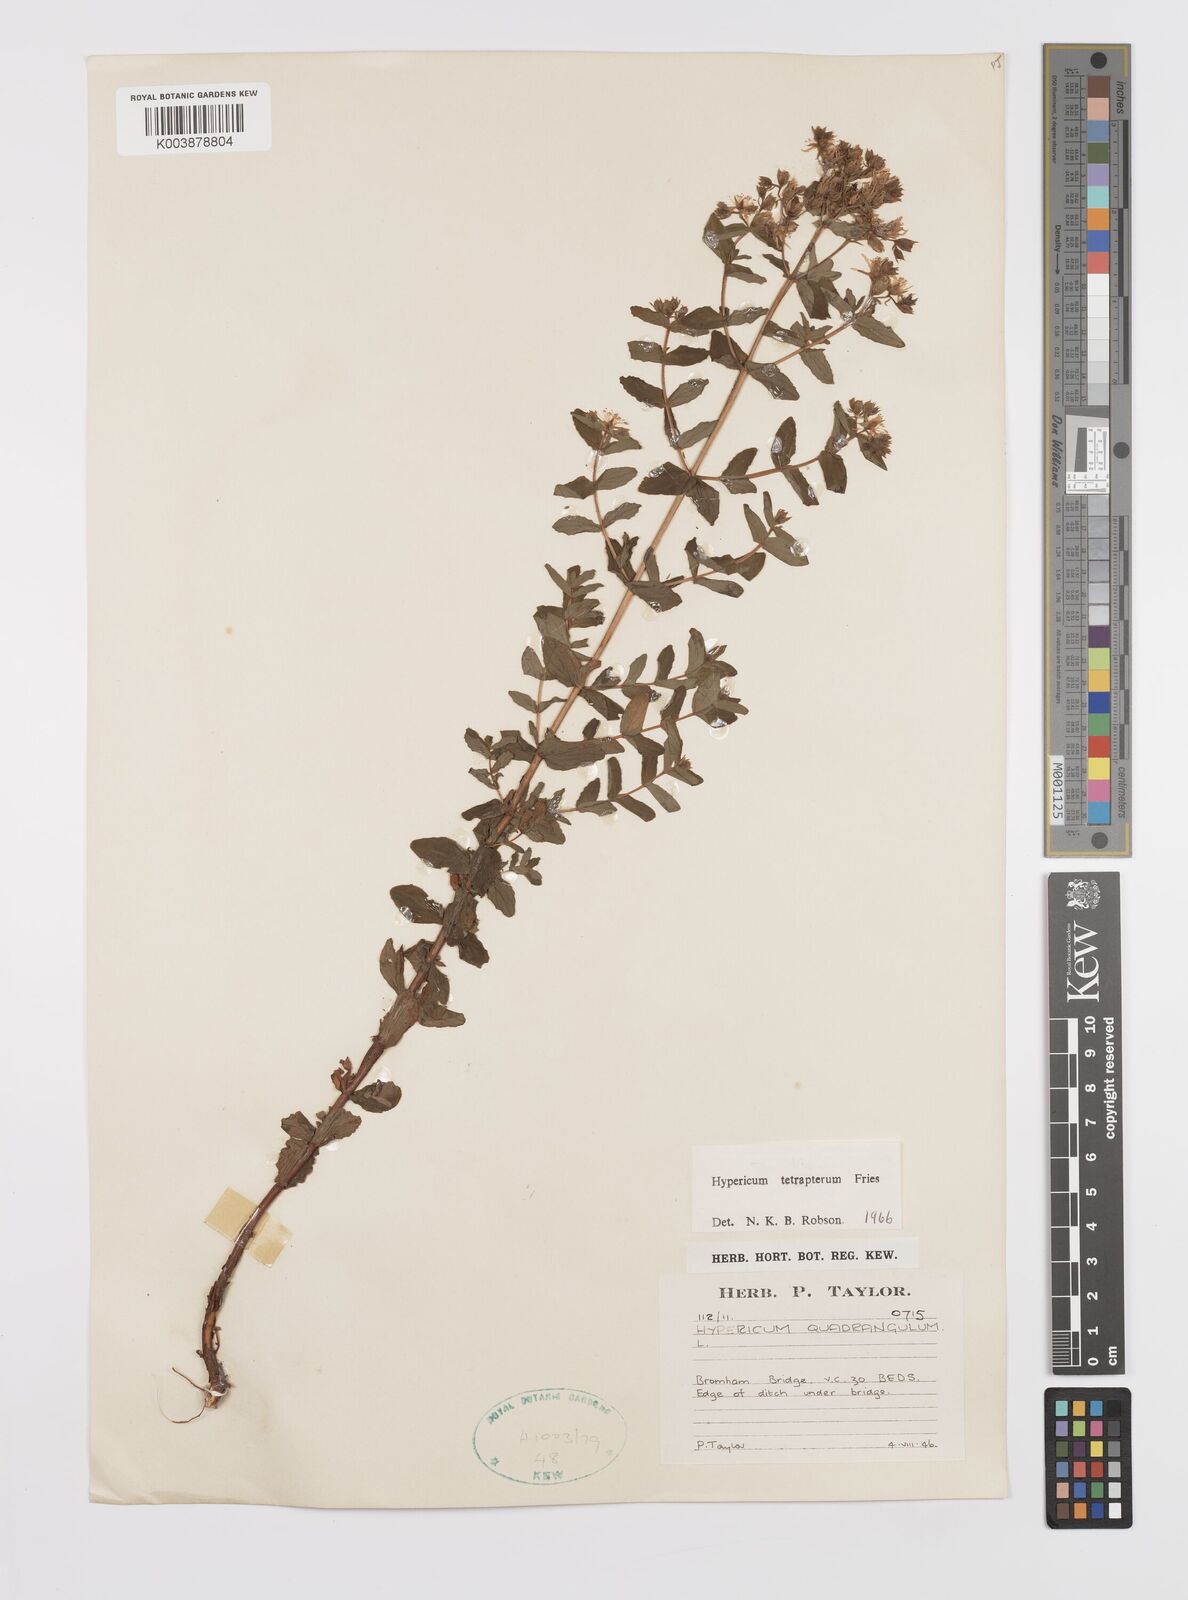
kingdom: Plantae
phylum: Tracheophyta
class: Magnoliopsida
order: Malpighiales
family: Hypericaceae
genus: Hypericum
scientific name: Hypericum tetrapterum
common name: Square-stalked st. john's-wort
